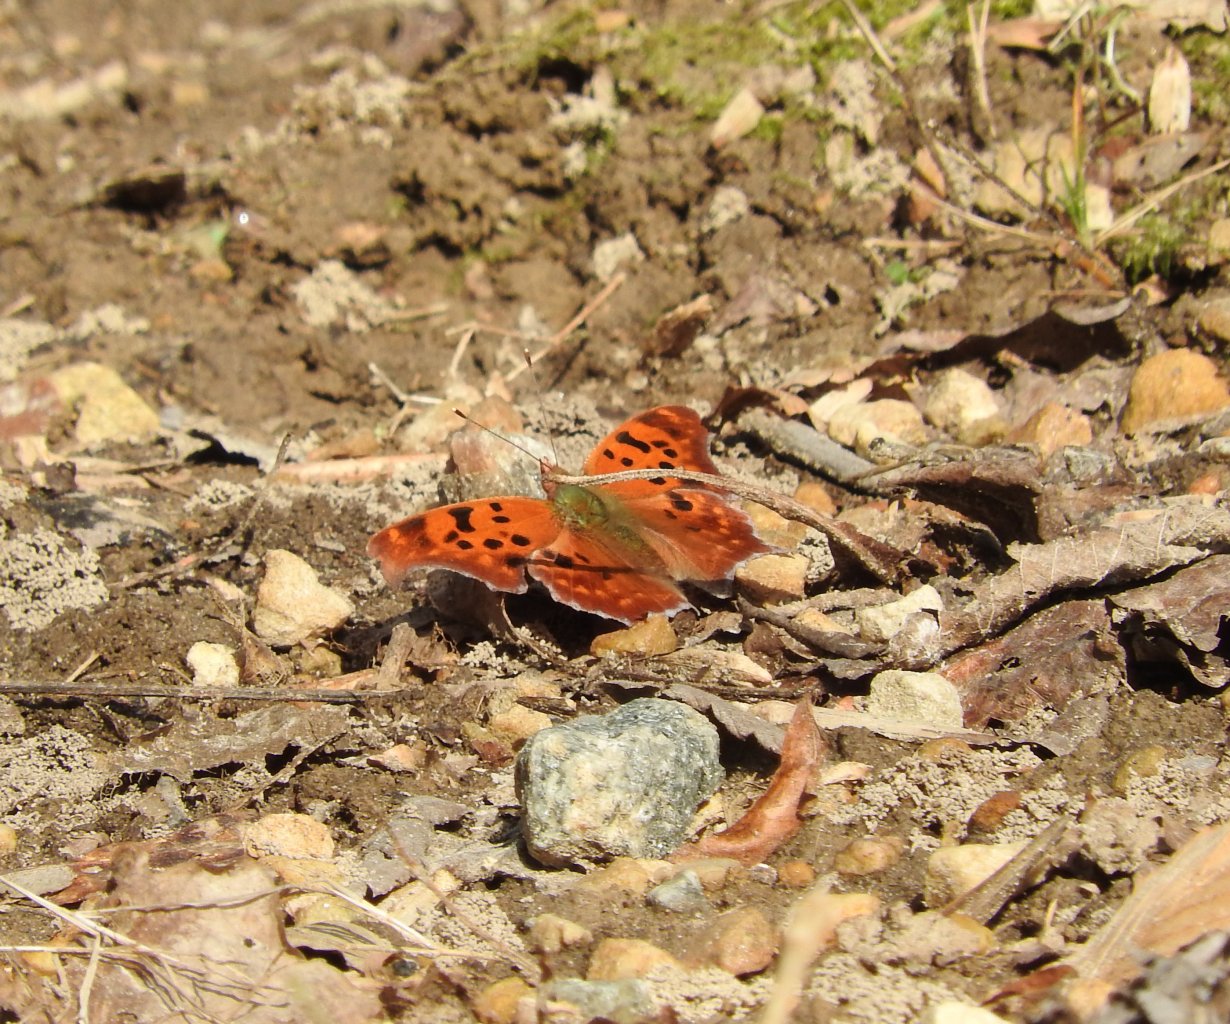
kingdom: Animalia
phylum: Arthropoda
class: Insecta
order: Lepidoptera
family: Nymphalidae
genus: Polygonia
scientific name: Polygonia interrogationis
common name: Question Mark
